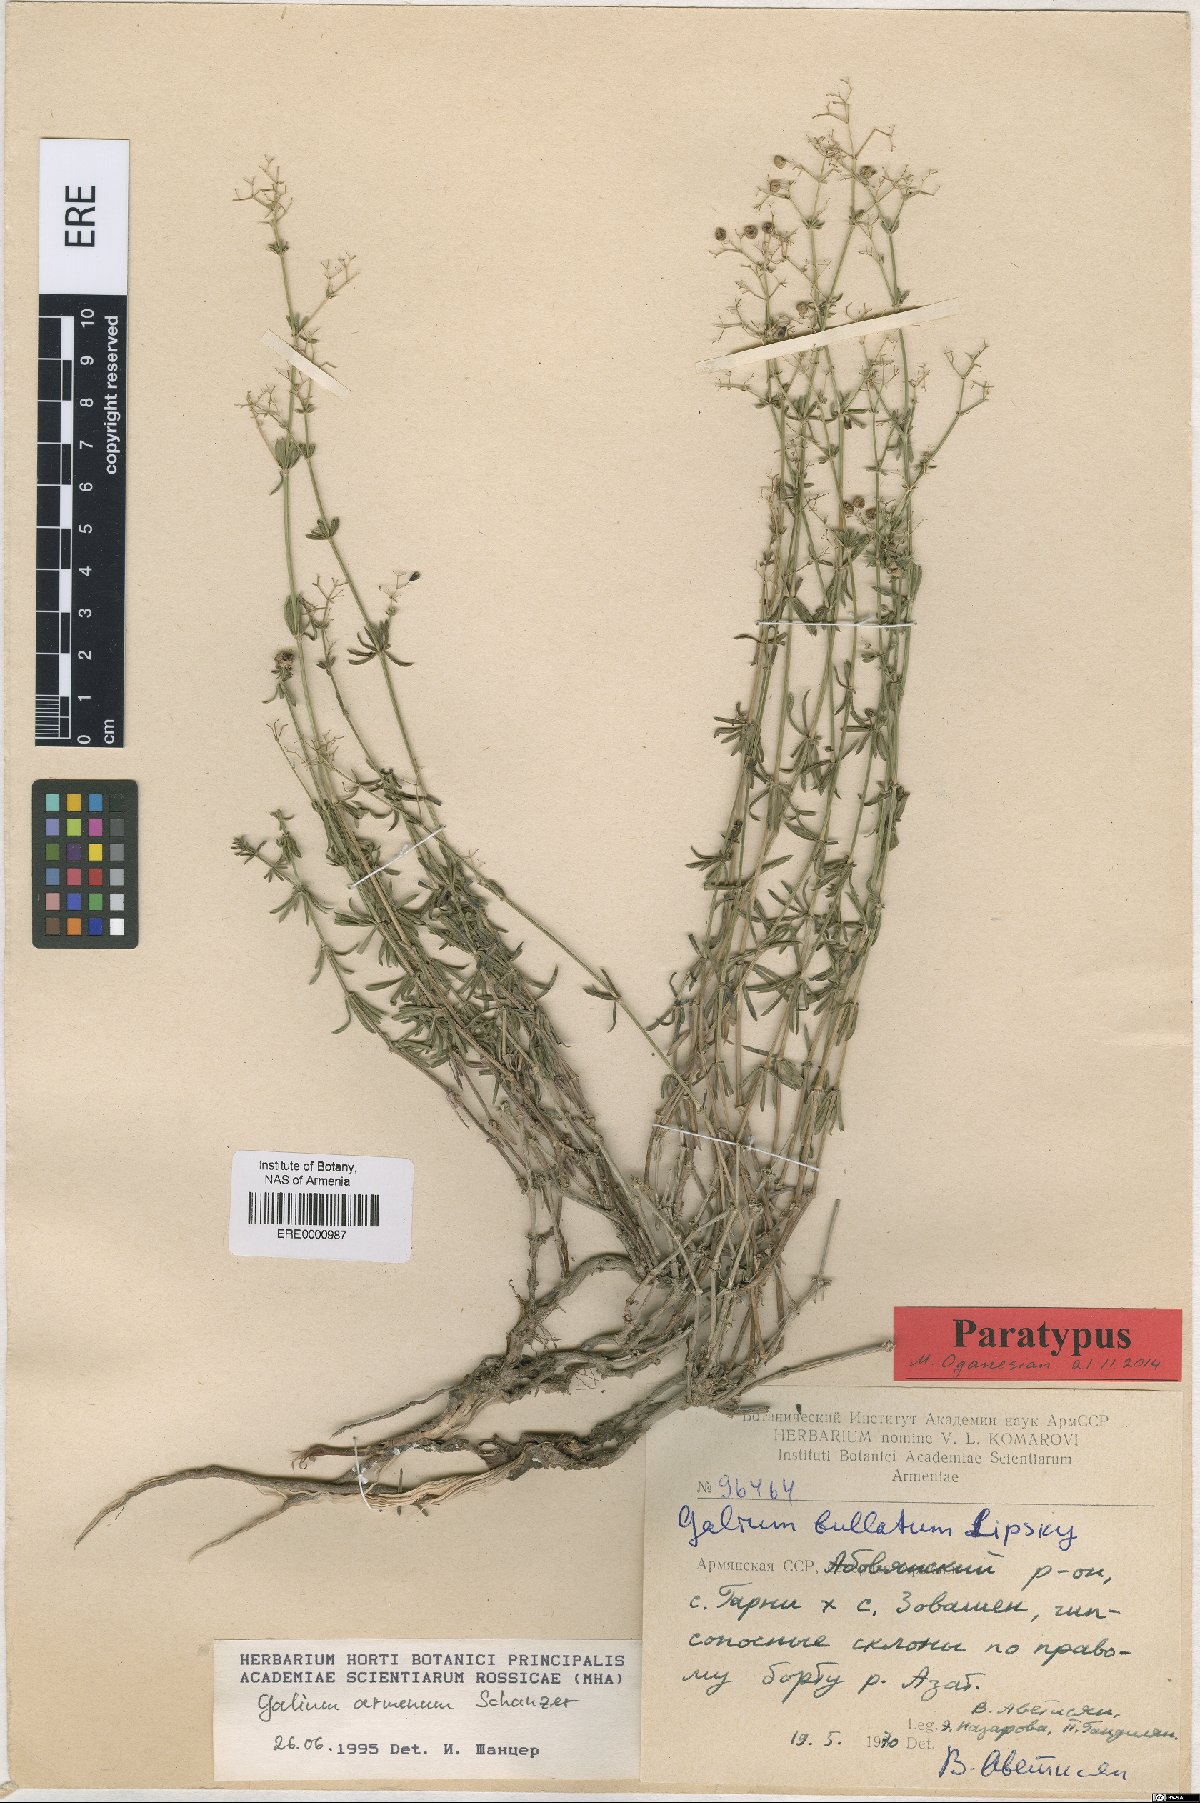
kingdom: Plantae
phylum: Tracheophyta
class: Magnoliopsida
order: Gentianales
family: Rubiaceae
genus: Galium
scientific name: Galium armenum
